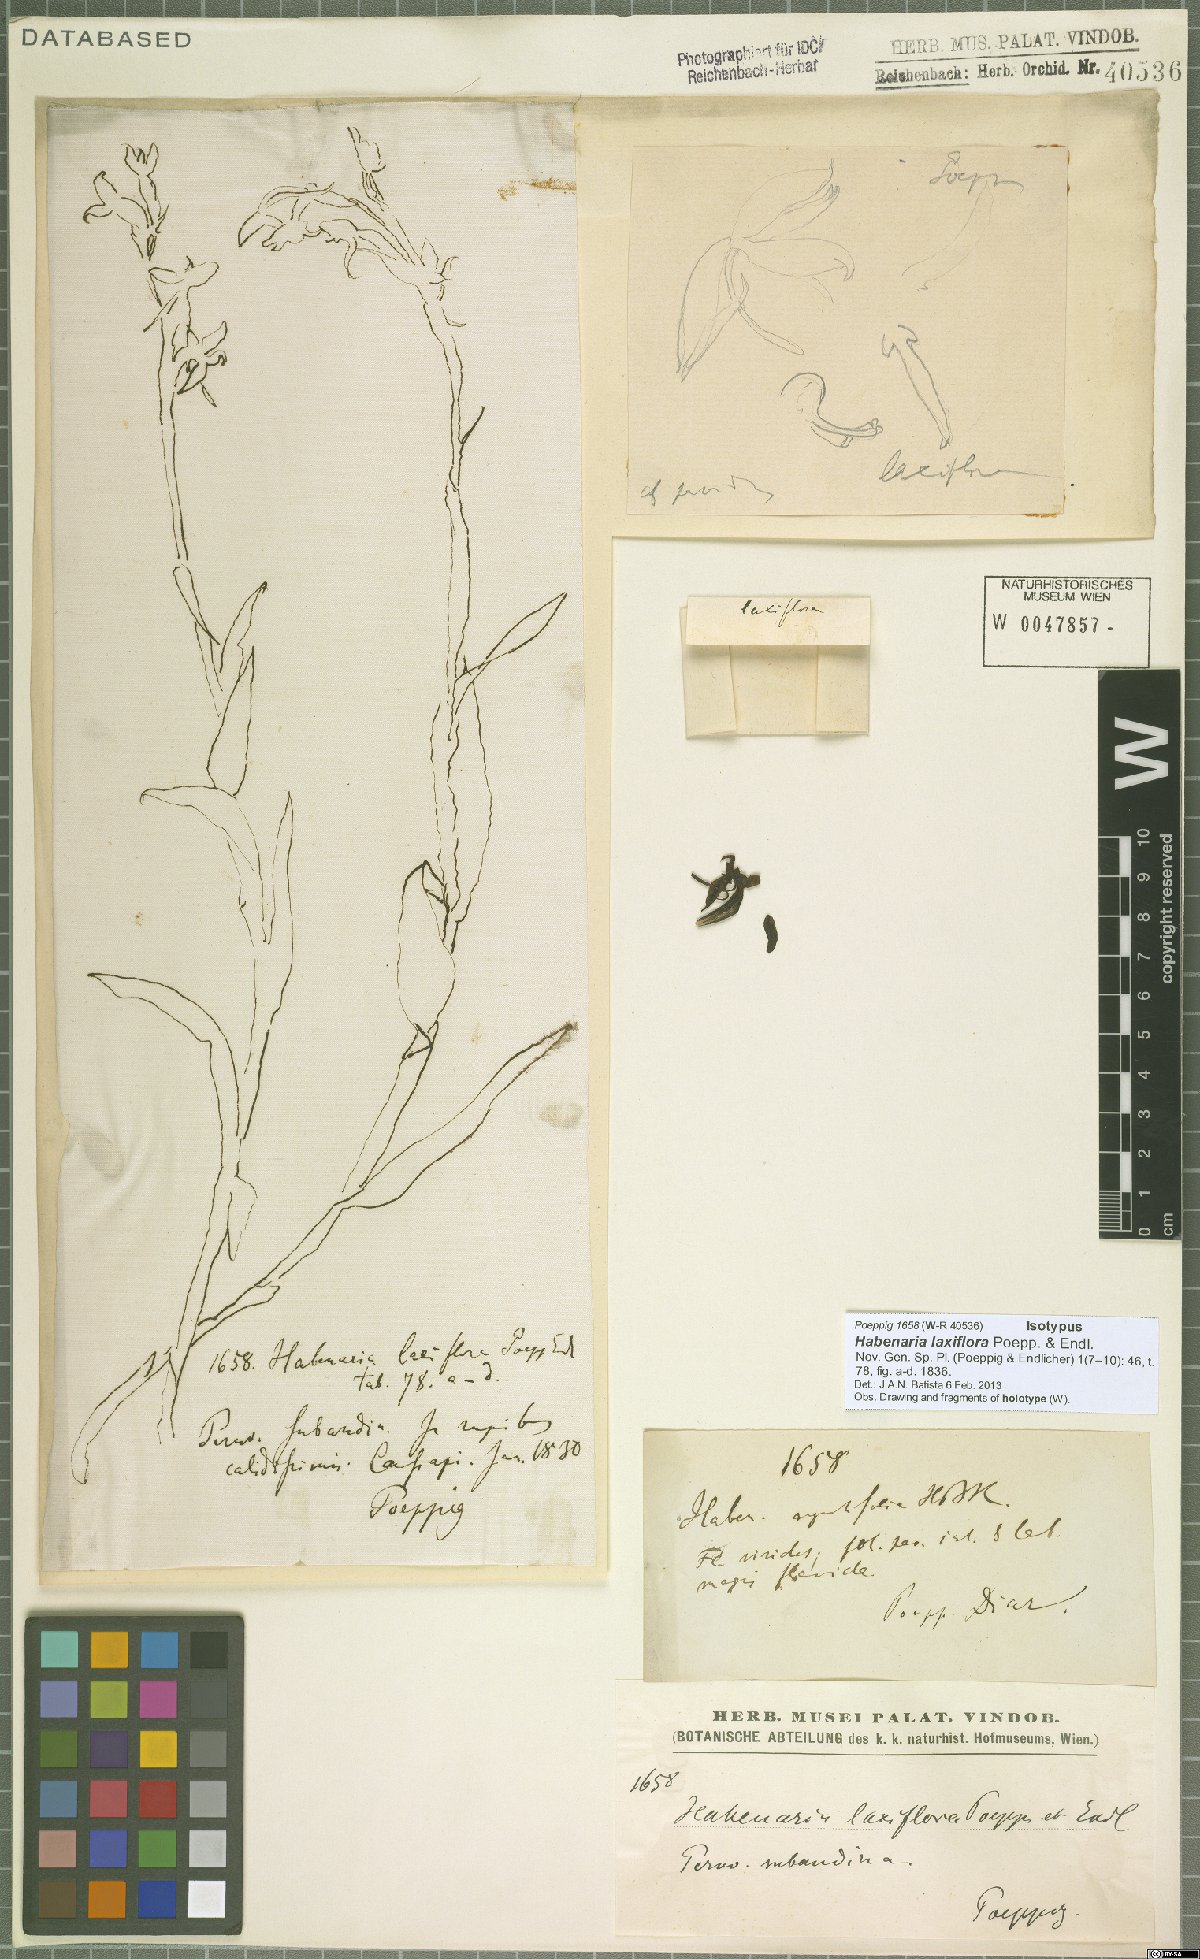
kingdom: Plantae
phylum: Tracheophyta
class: Liliopsida
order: Asparagales
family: Orchidaceae
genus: Habenaria
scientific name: Habenaria alata
